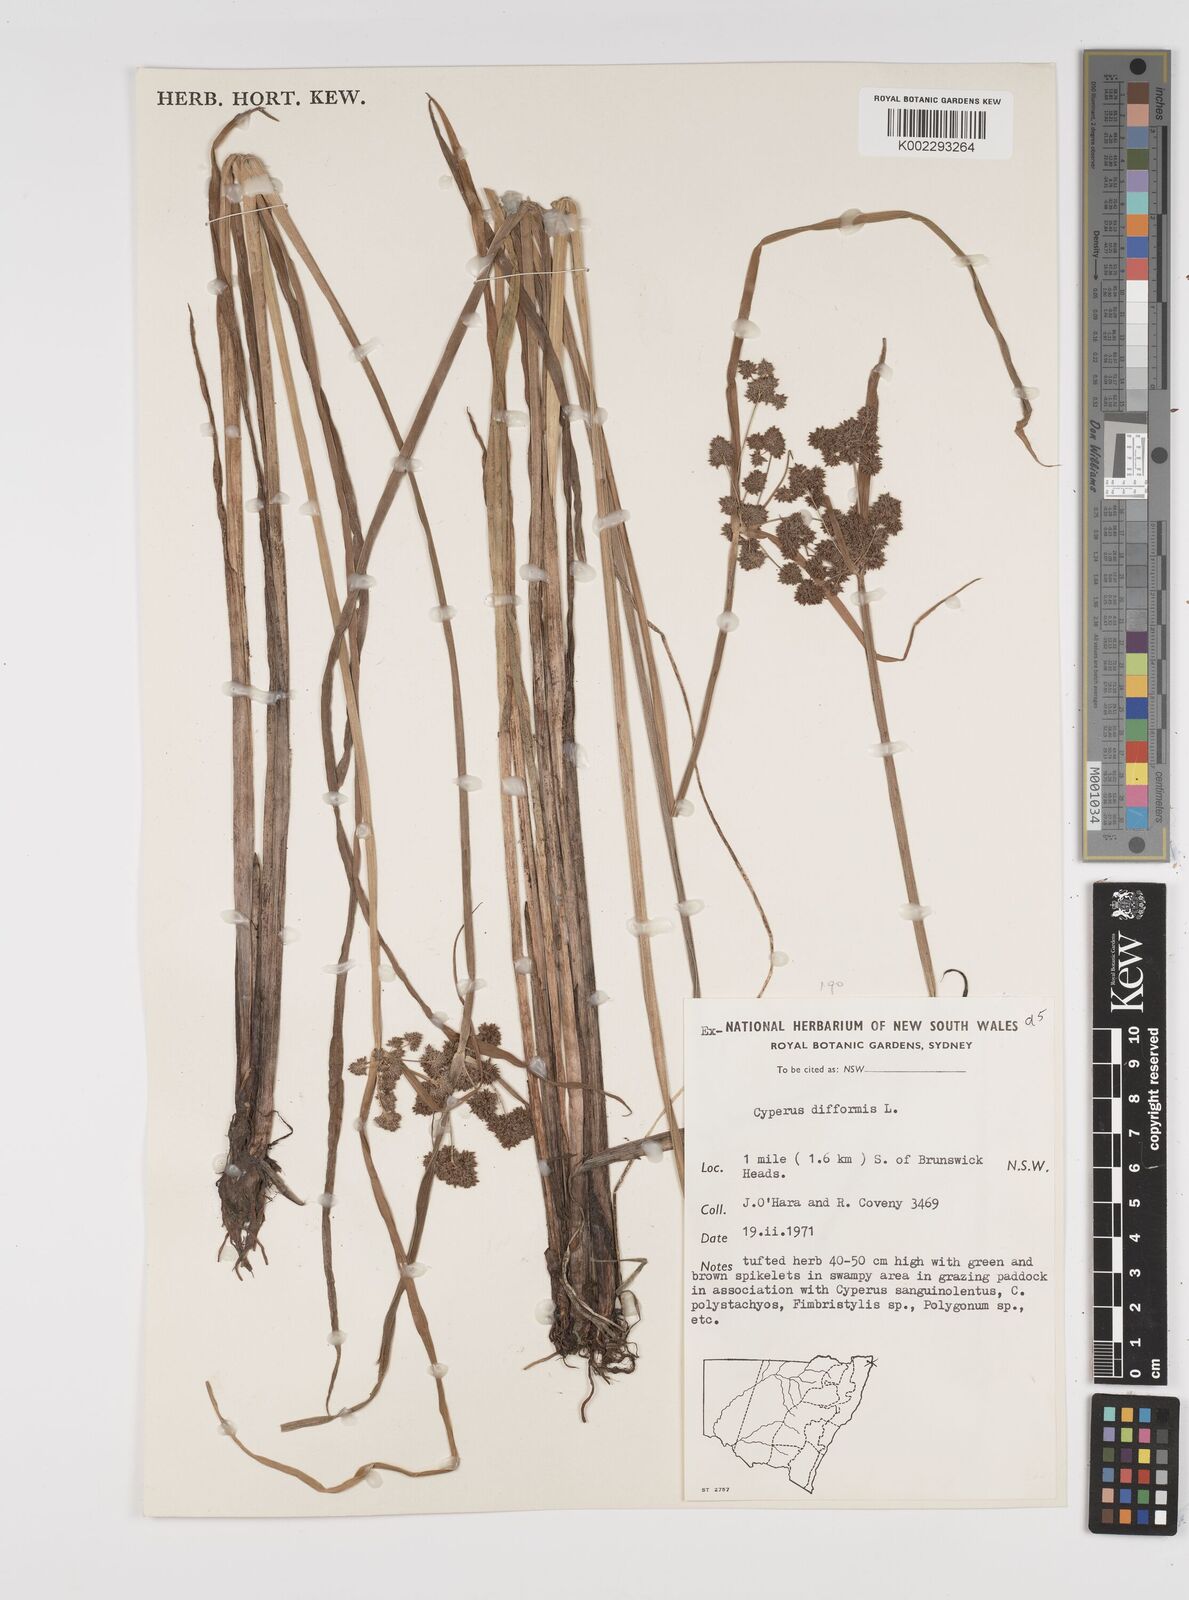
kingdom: Plantae
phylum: Tracheophyta
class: Liliopsida
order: Poales
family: Cyperaceae
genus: Cyperus
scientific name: Cyperus difformis
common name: Variable flatsedge
